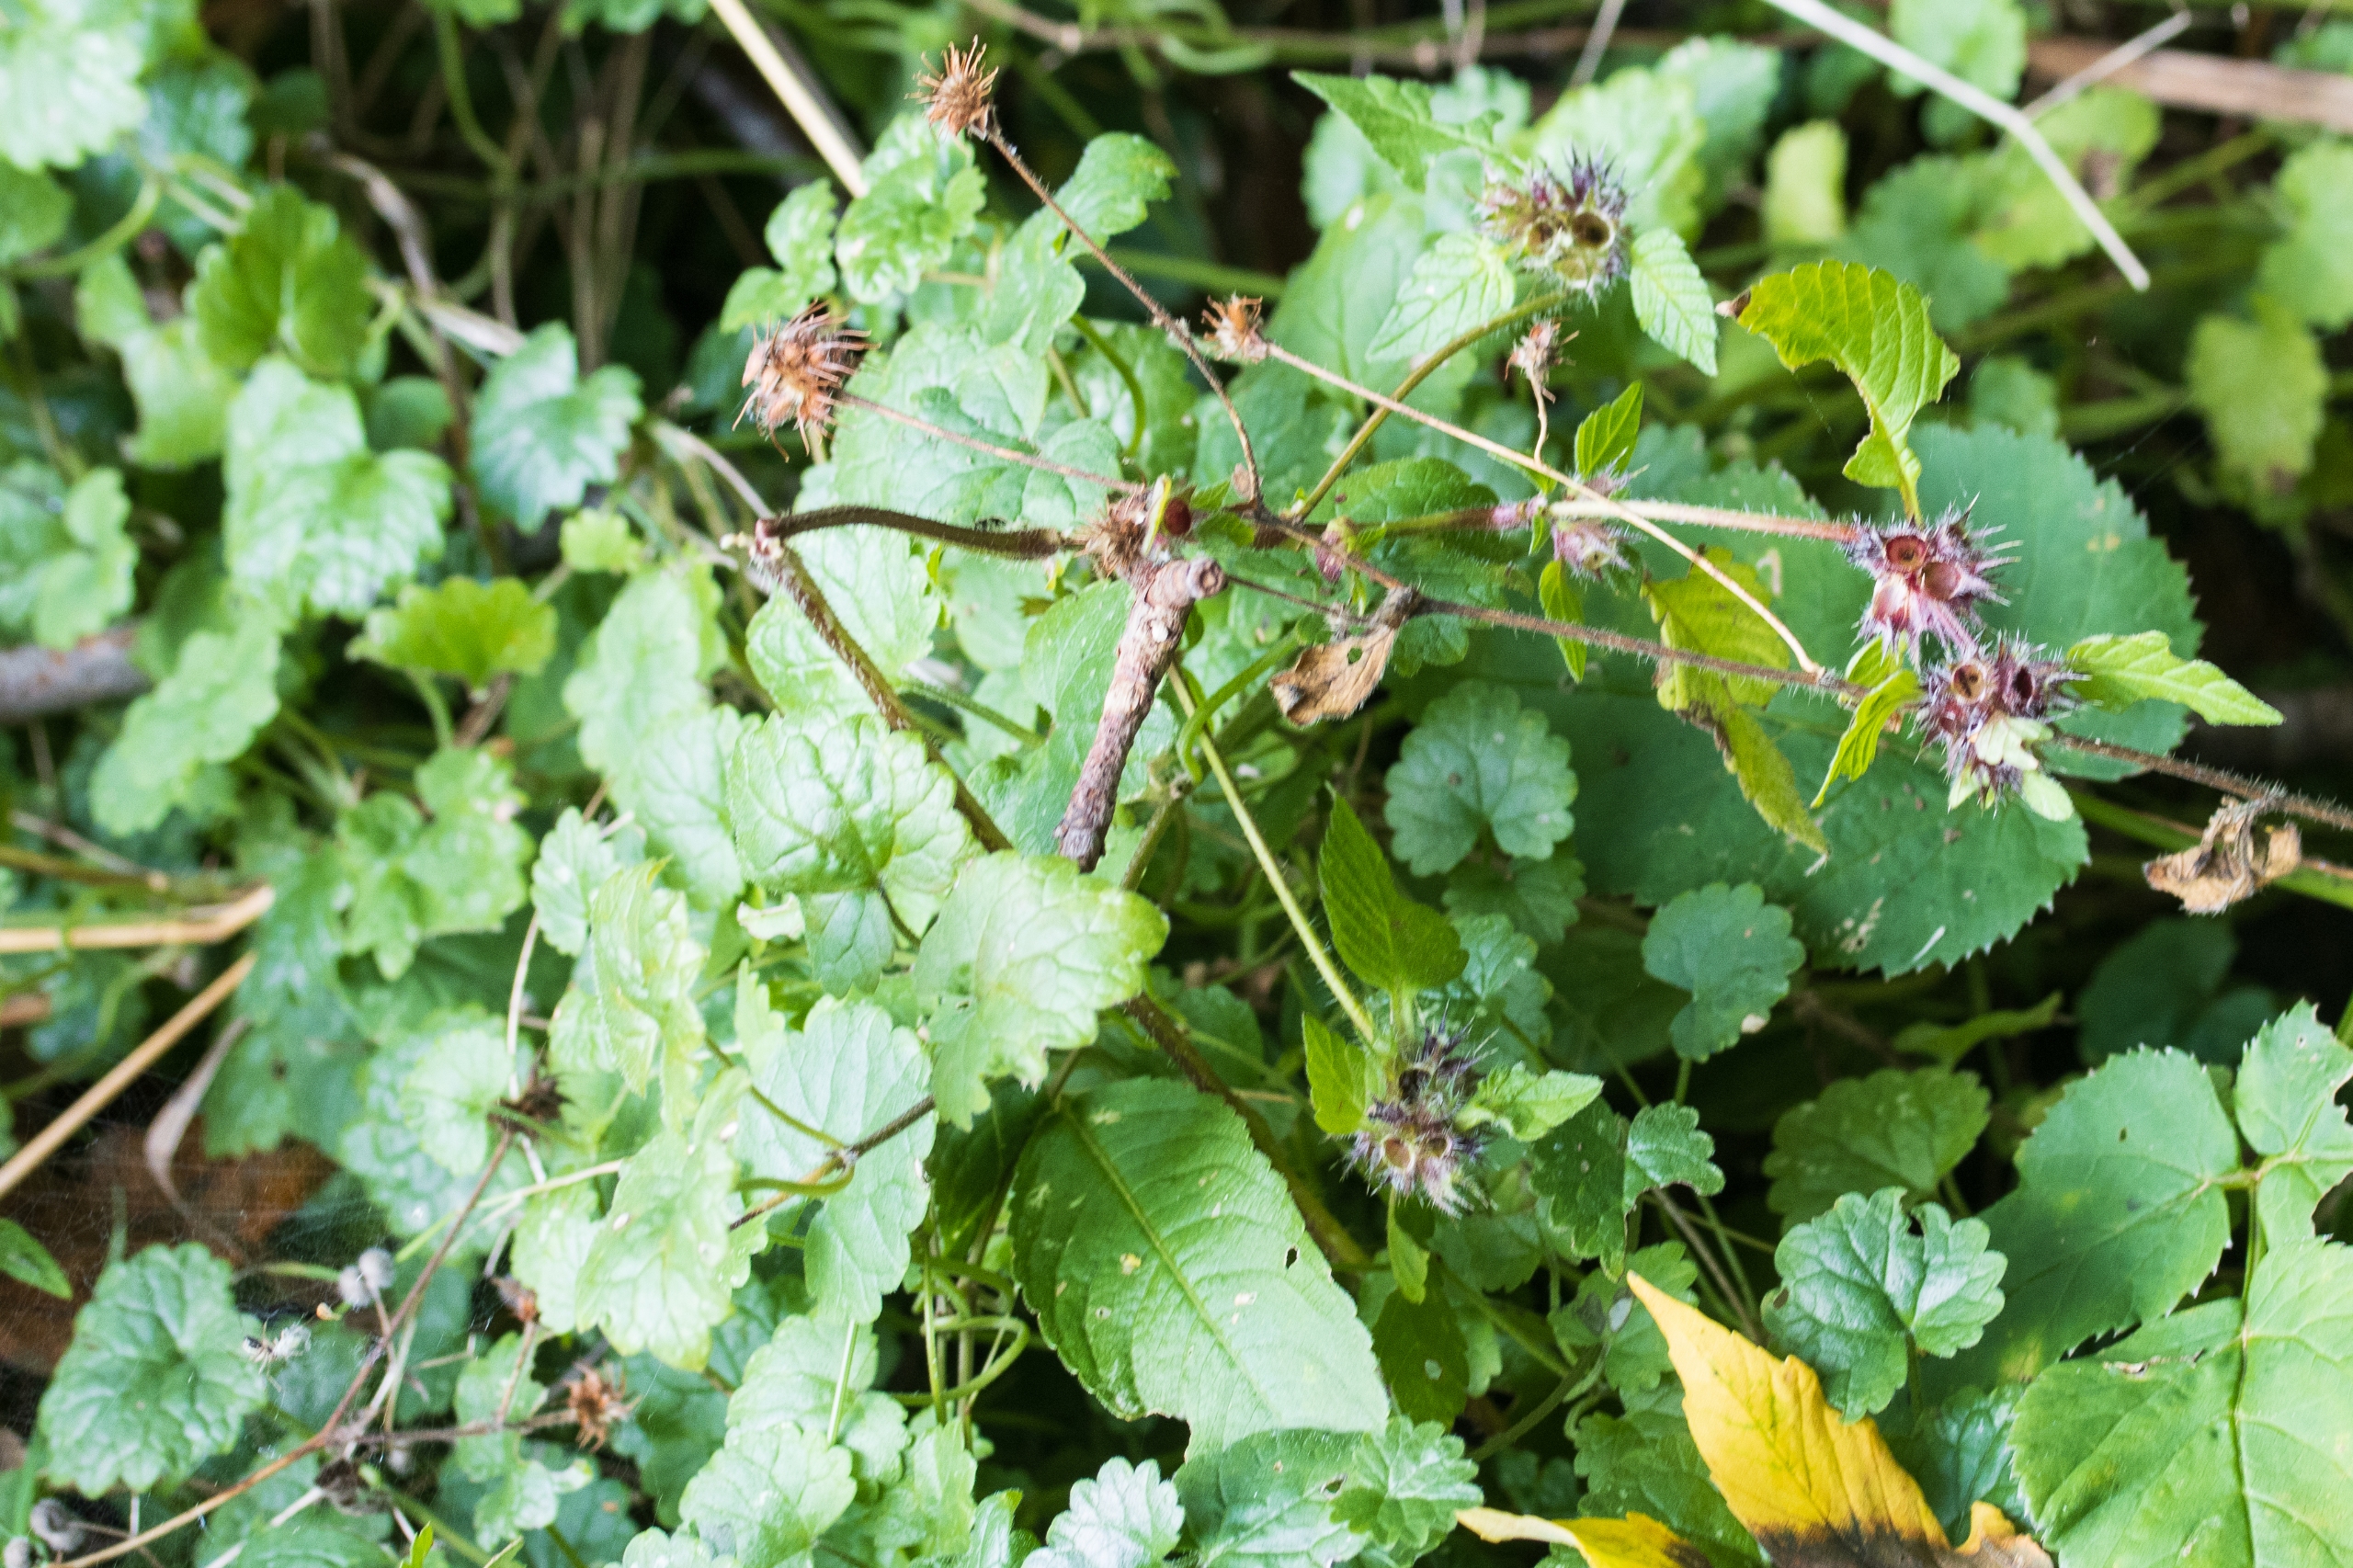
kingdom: Plantae
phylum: Tracheophyta
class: Magnoliopsida
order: Lamiales
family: Lamiaceae
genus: Galeopsis
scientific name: Galeopsis
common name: Hanekroslægten
